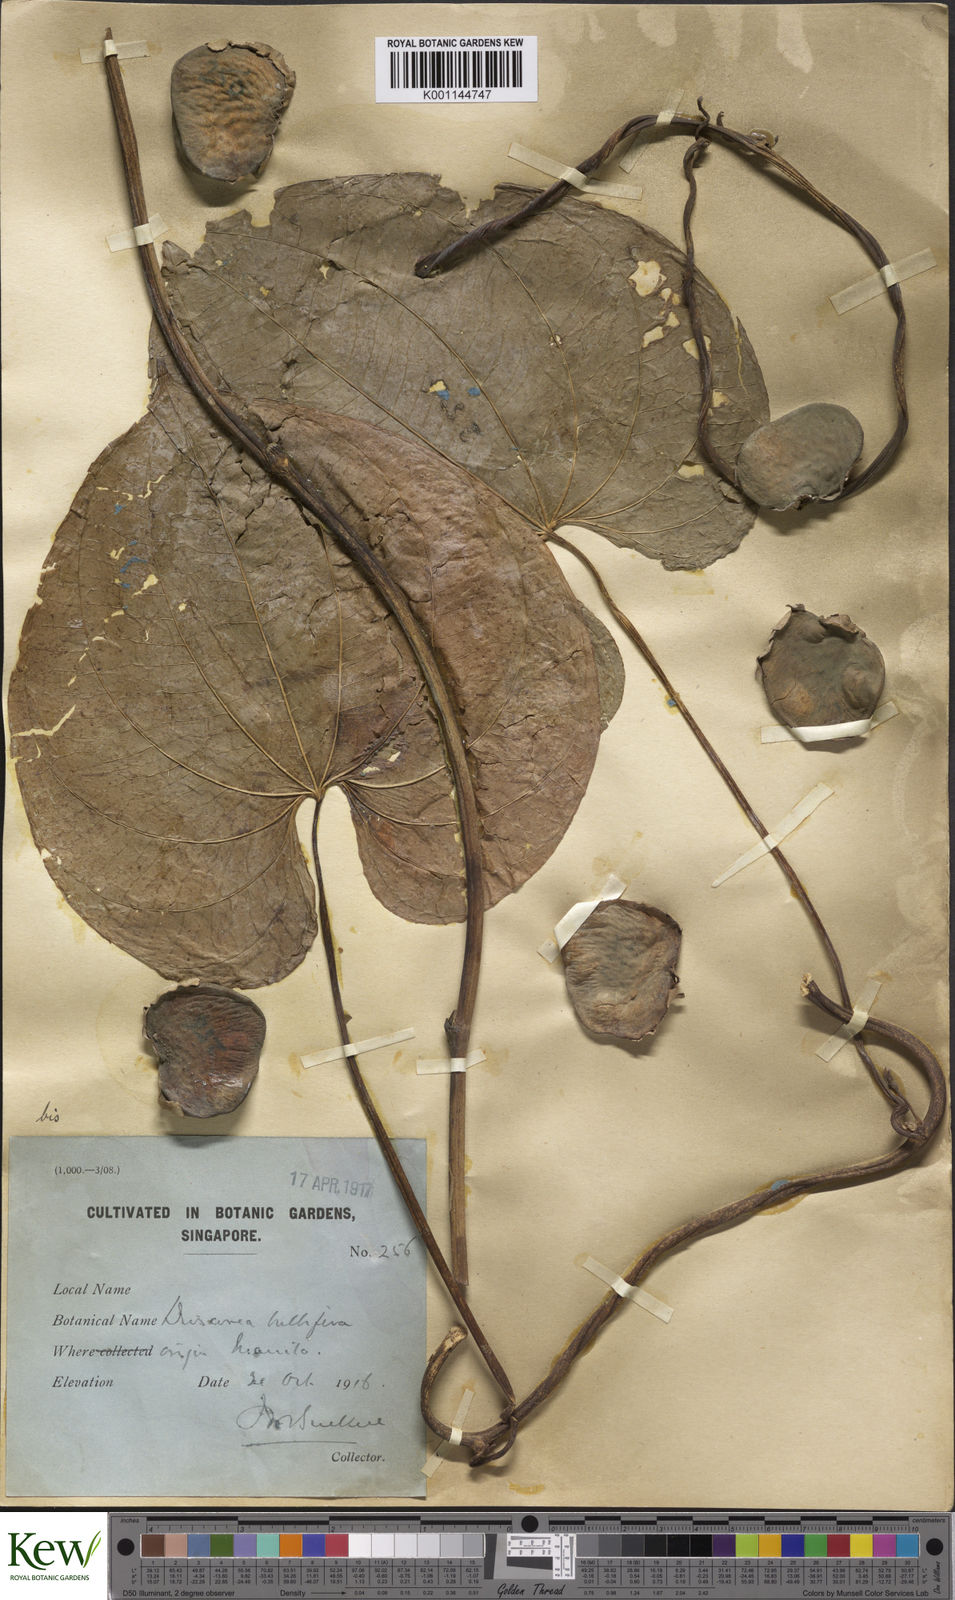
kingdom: Plantae
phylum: Tracheophyta
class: Liliopsida
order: Dioscoreales
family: Dioscoreaceae
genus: Dioscorea
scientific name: Dioscorea bulbifera
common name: Air yam
